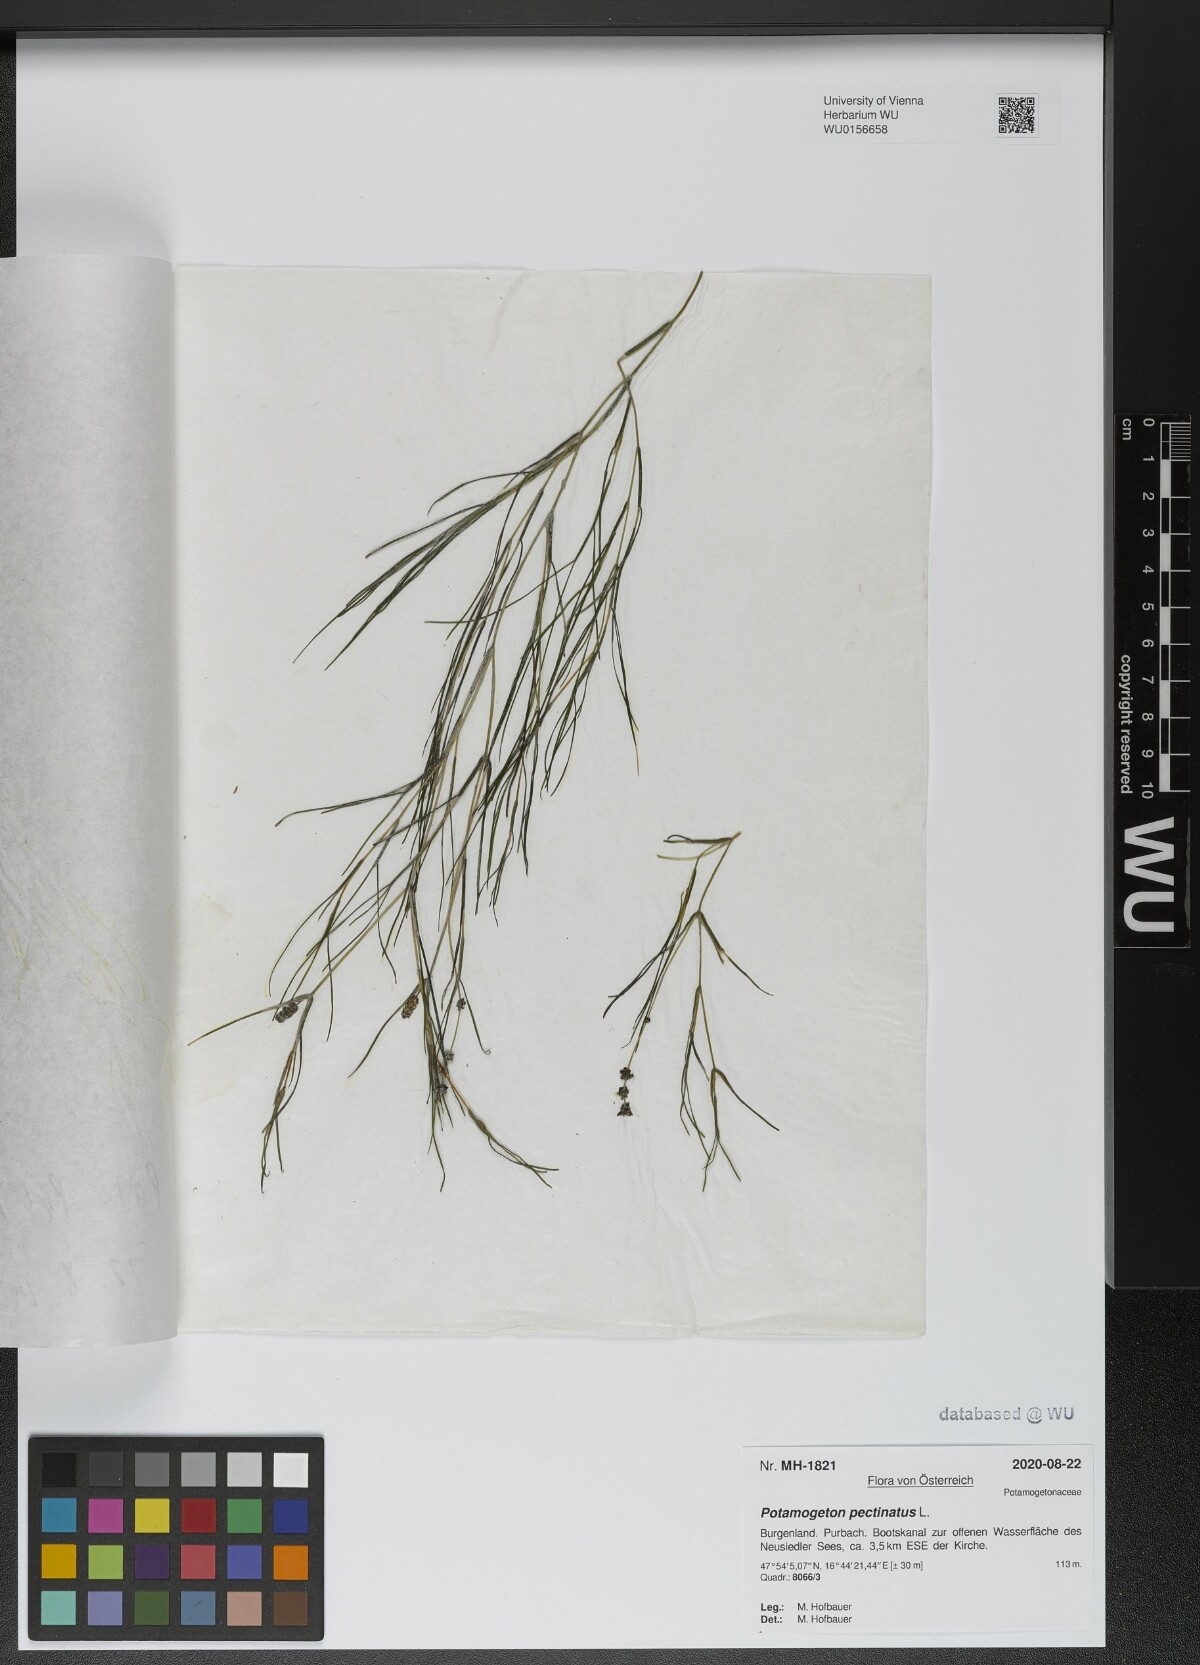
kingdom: Plantae
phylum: Tracheophyta
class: Liliopsida
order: Alismatales
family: Potamogetonaceae
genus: Stuckenia
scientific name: Stuckenia pectinata
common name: Sago pondweed
